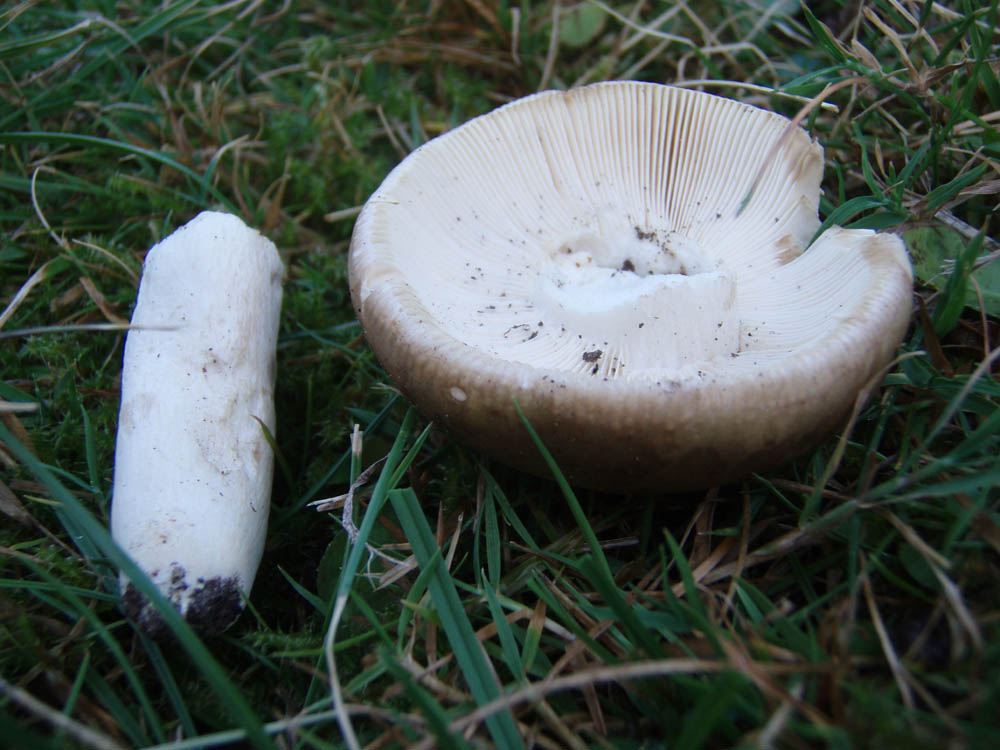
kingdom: Fungi
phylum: Basidiomycota
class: Agaricomycetes
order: Russulales
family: Russulaceae
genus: Russula
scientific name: Russula faustiana
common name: olivengrå skørhat
